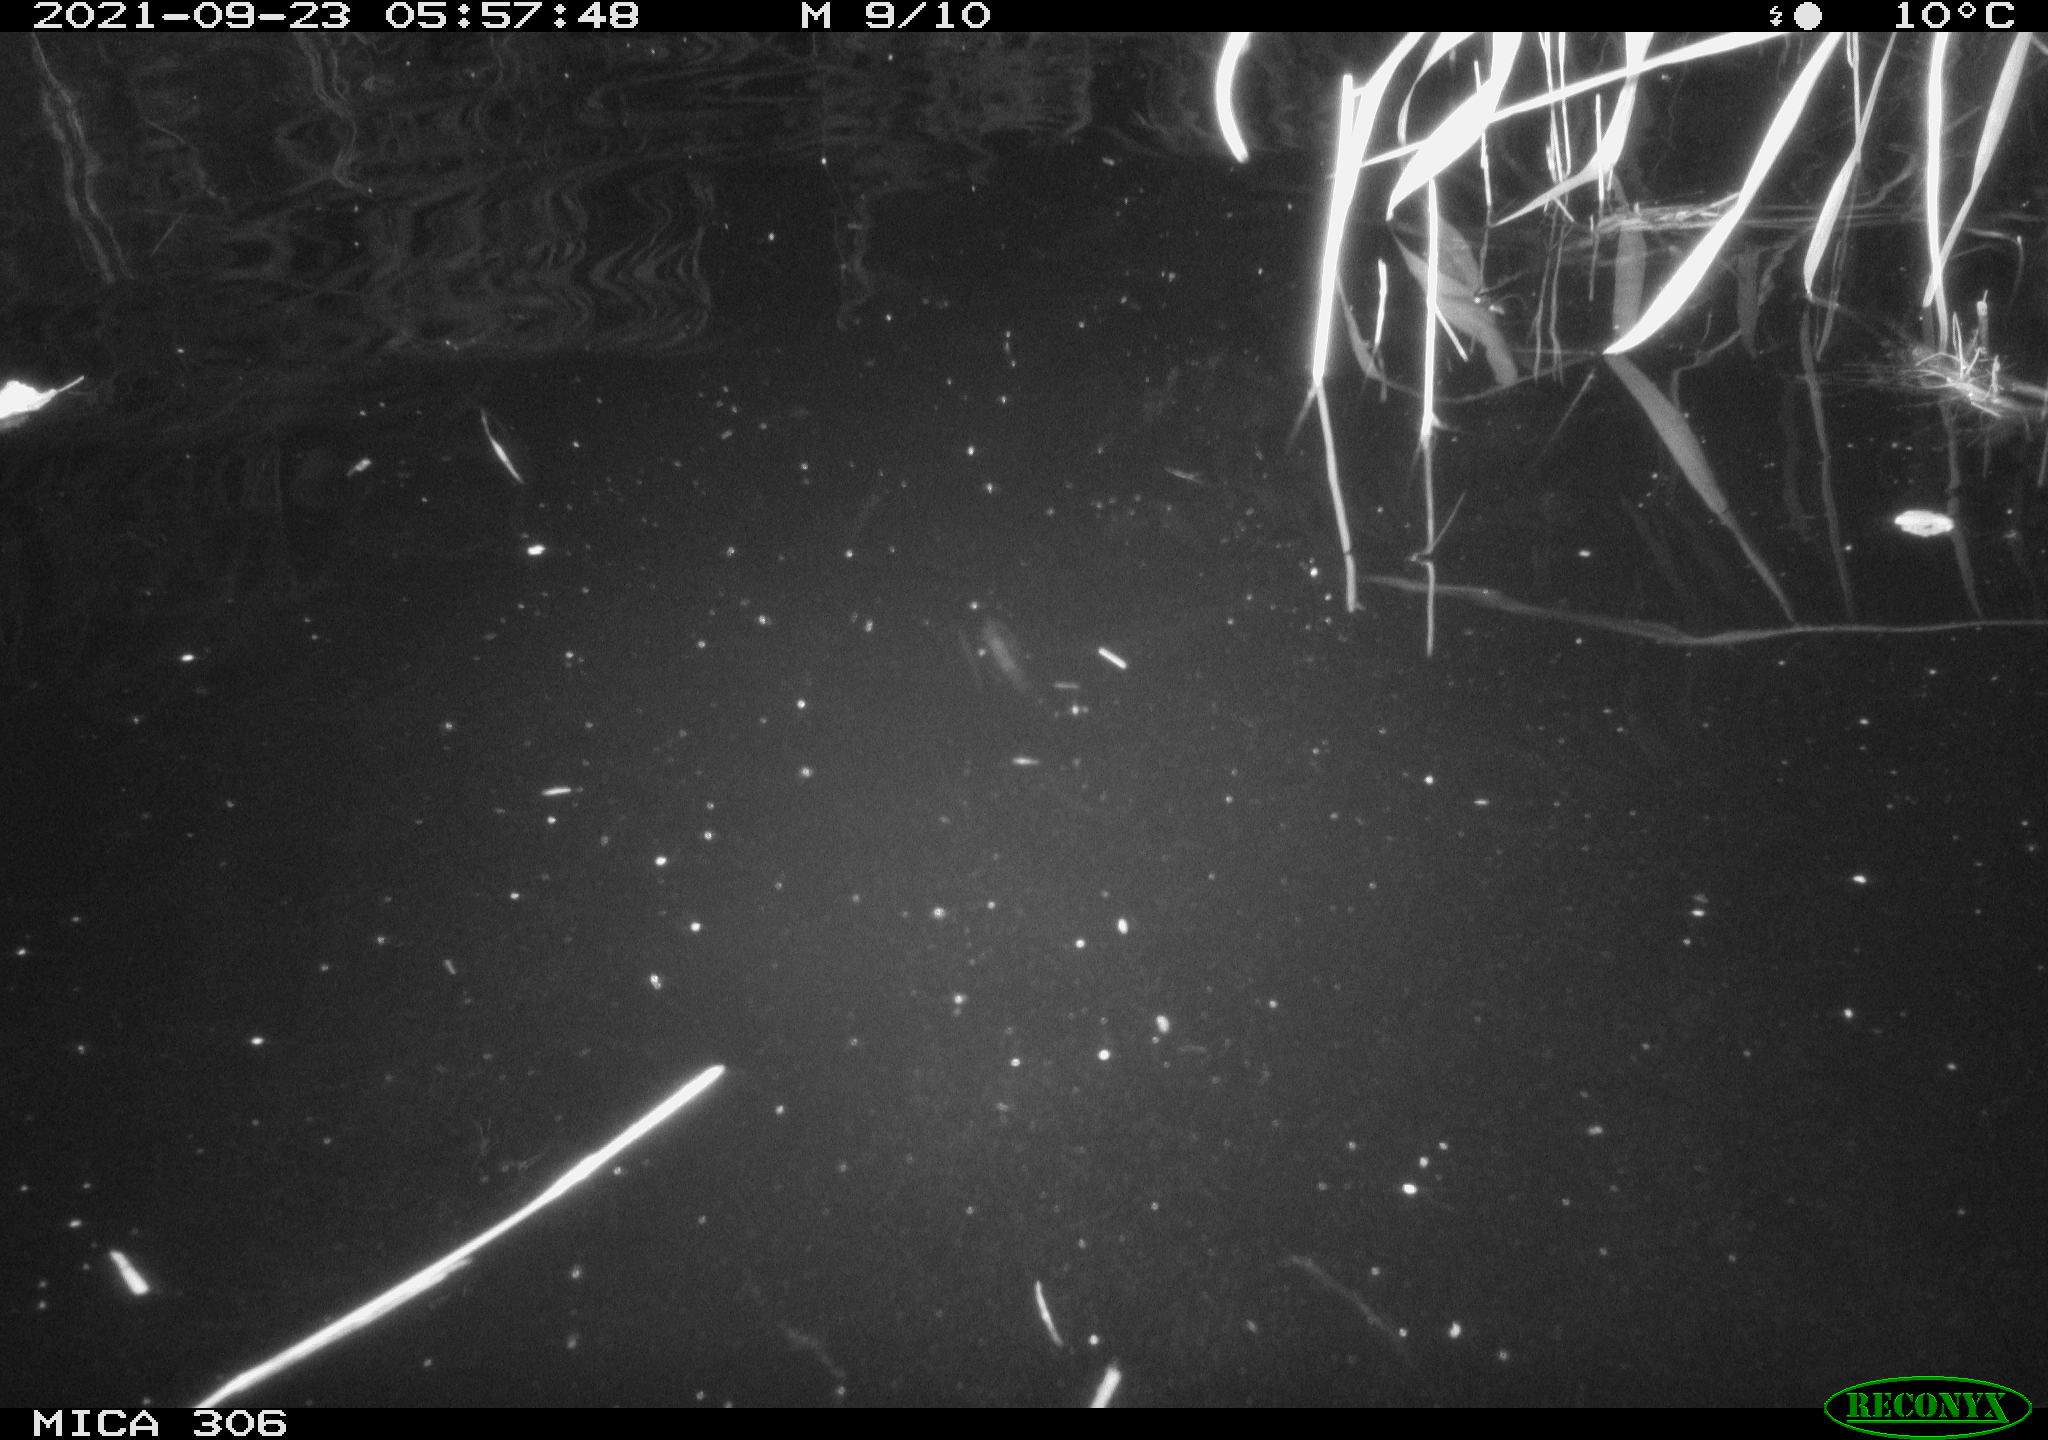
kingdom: Animalia
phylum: Chordata
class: Mammalia
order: Rodentia
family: Cricetidae
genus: Ondatra
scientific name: Ondatra zibethicus
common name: Muskrat
